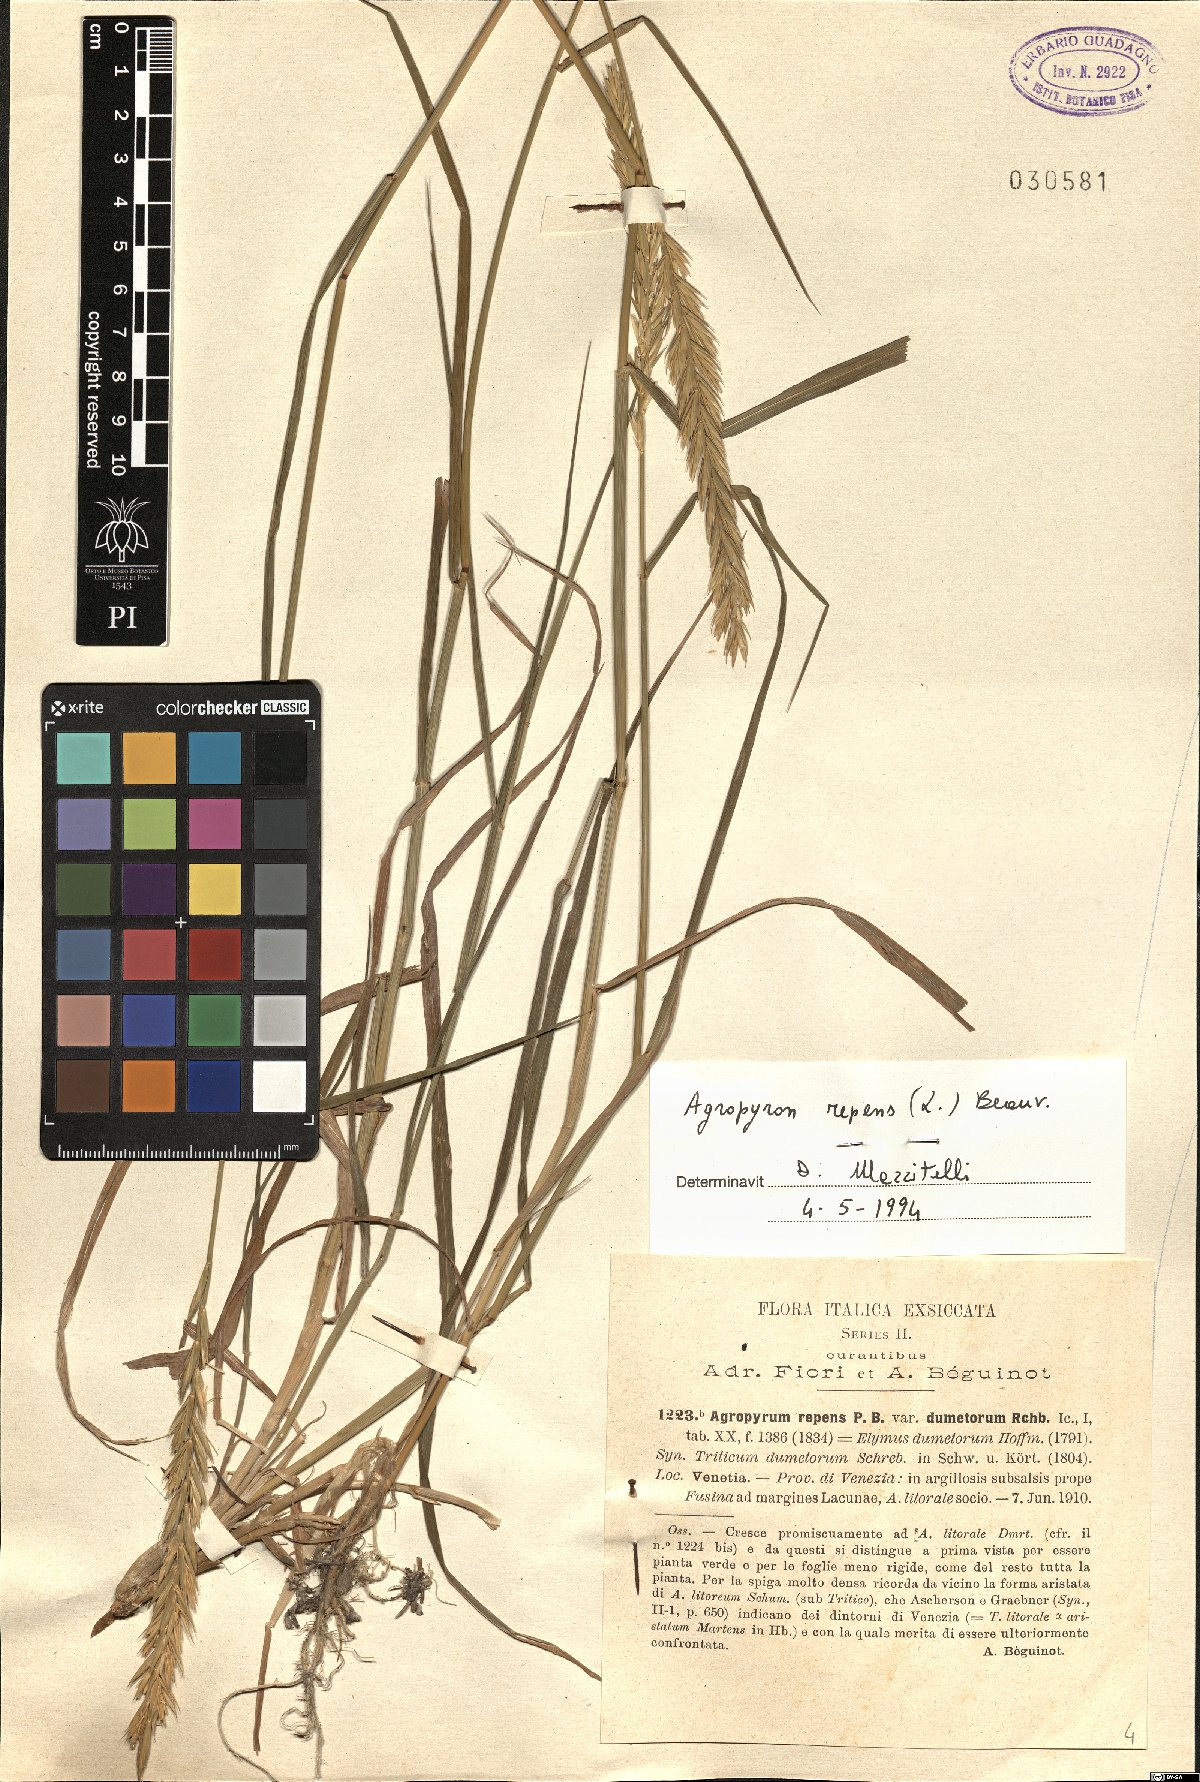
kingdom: Plantae
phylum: Tracheophyta
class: Liliopsida
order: Poales
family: Poaceae
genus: Elymus
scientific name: Elymus repens
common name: Quackgrass
